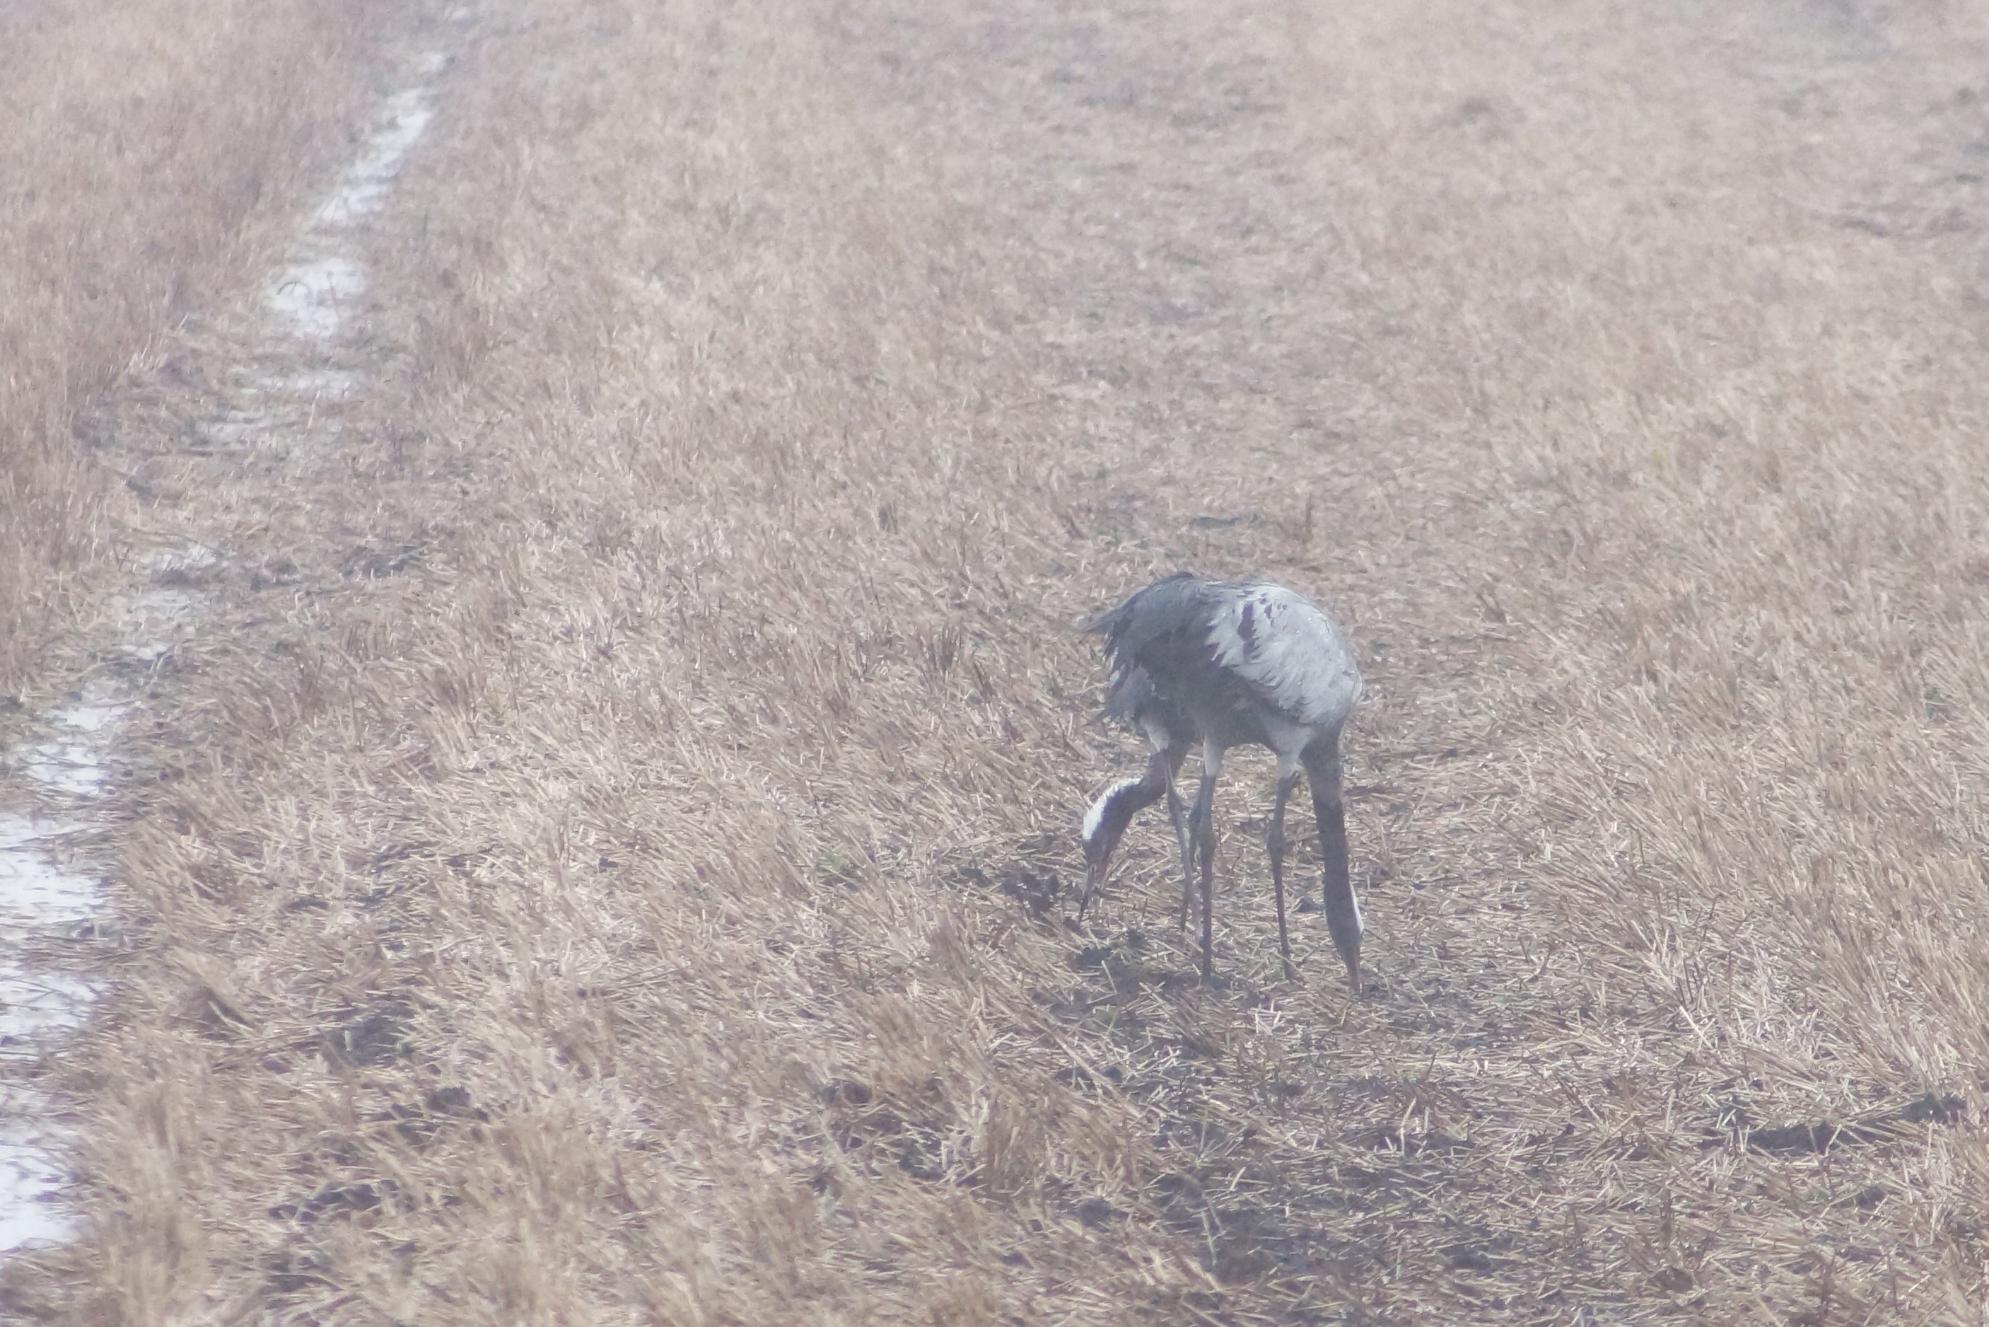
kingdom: Animalia
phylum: Chordata
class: Aves
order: Gruiformes
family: Gruidae
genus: Grus
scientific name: Grus grus
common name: Trane
